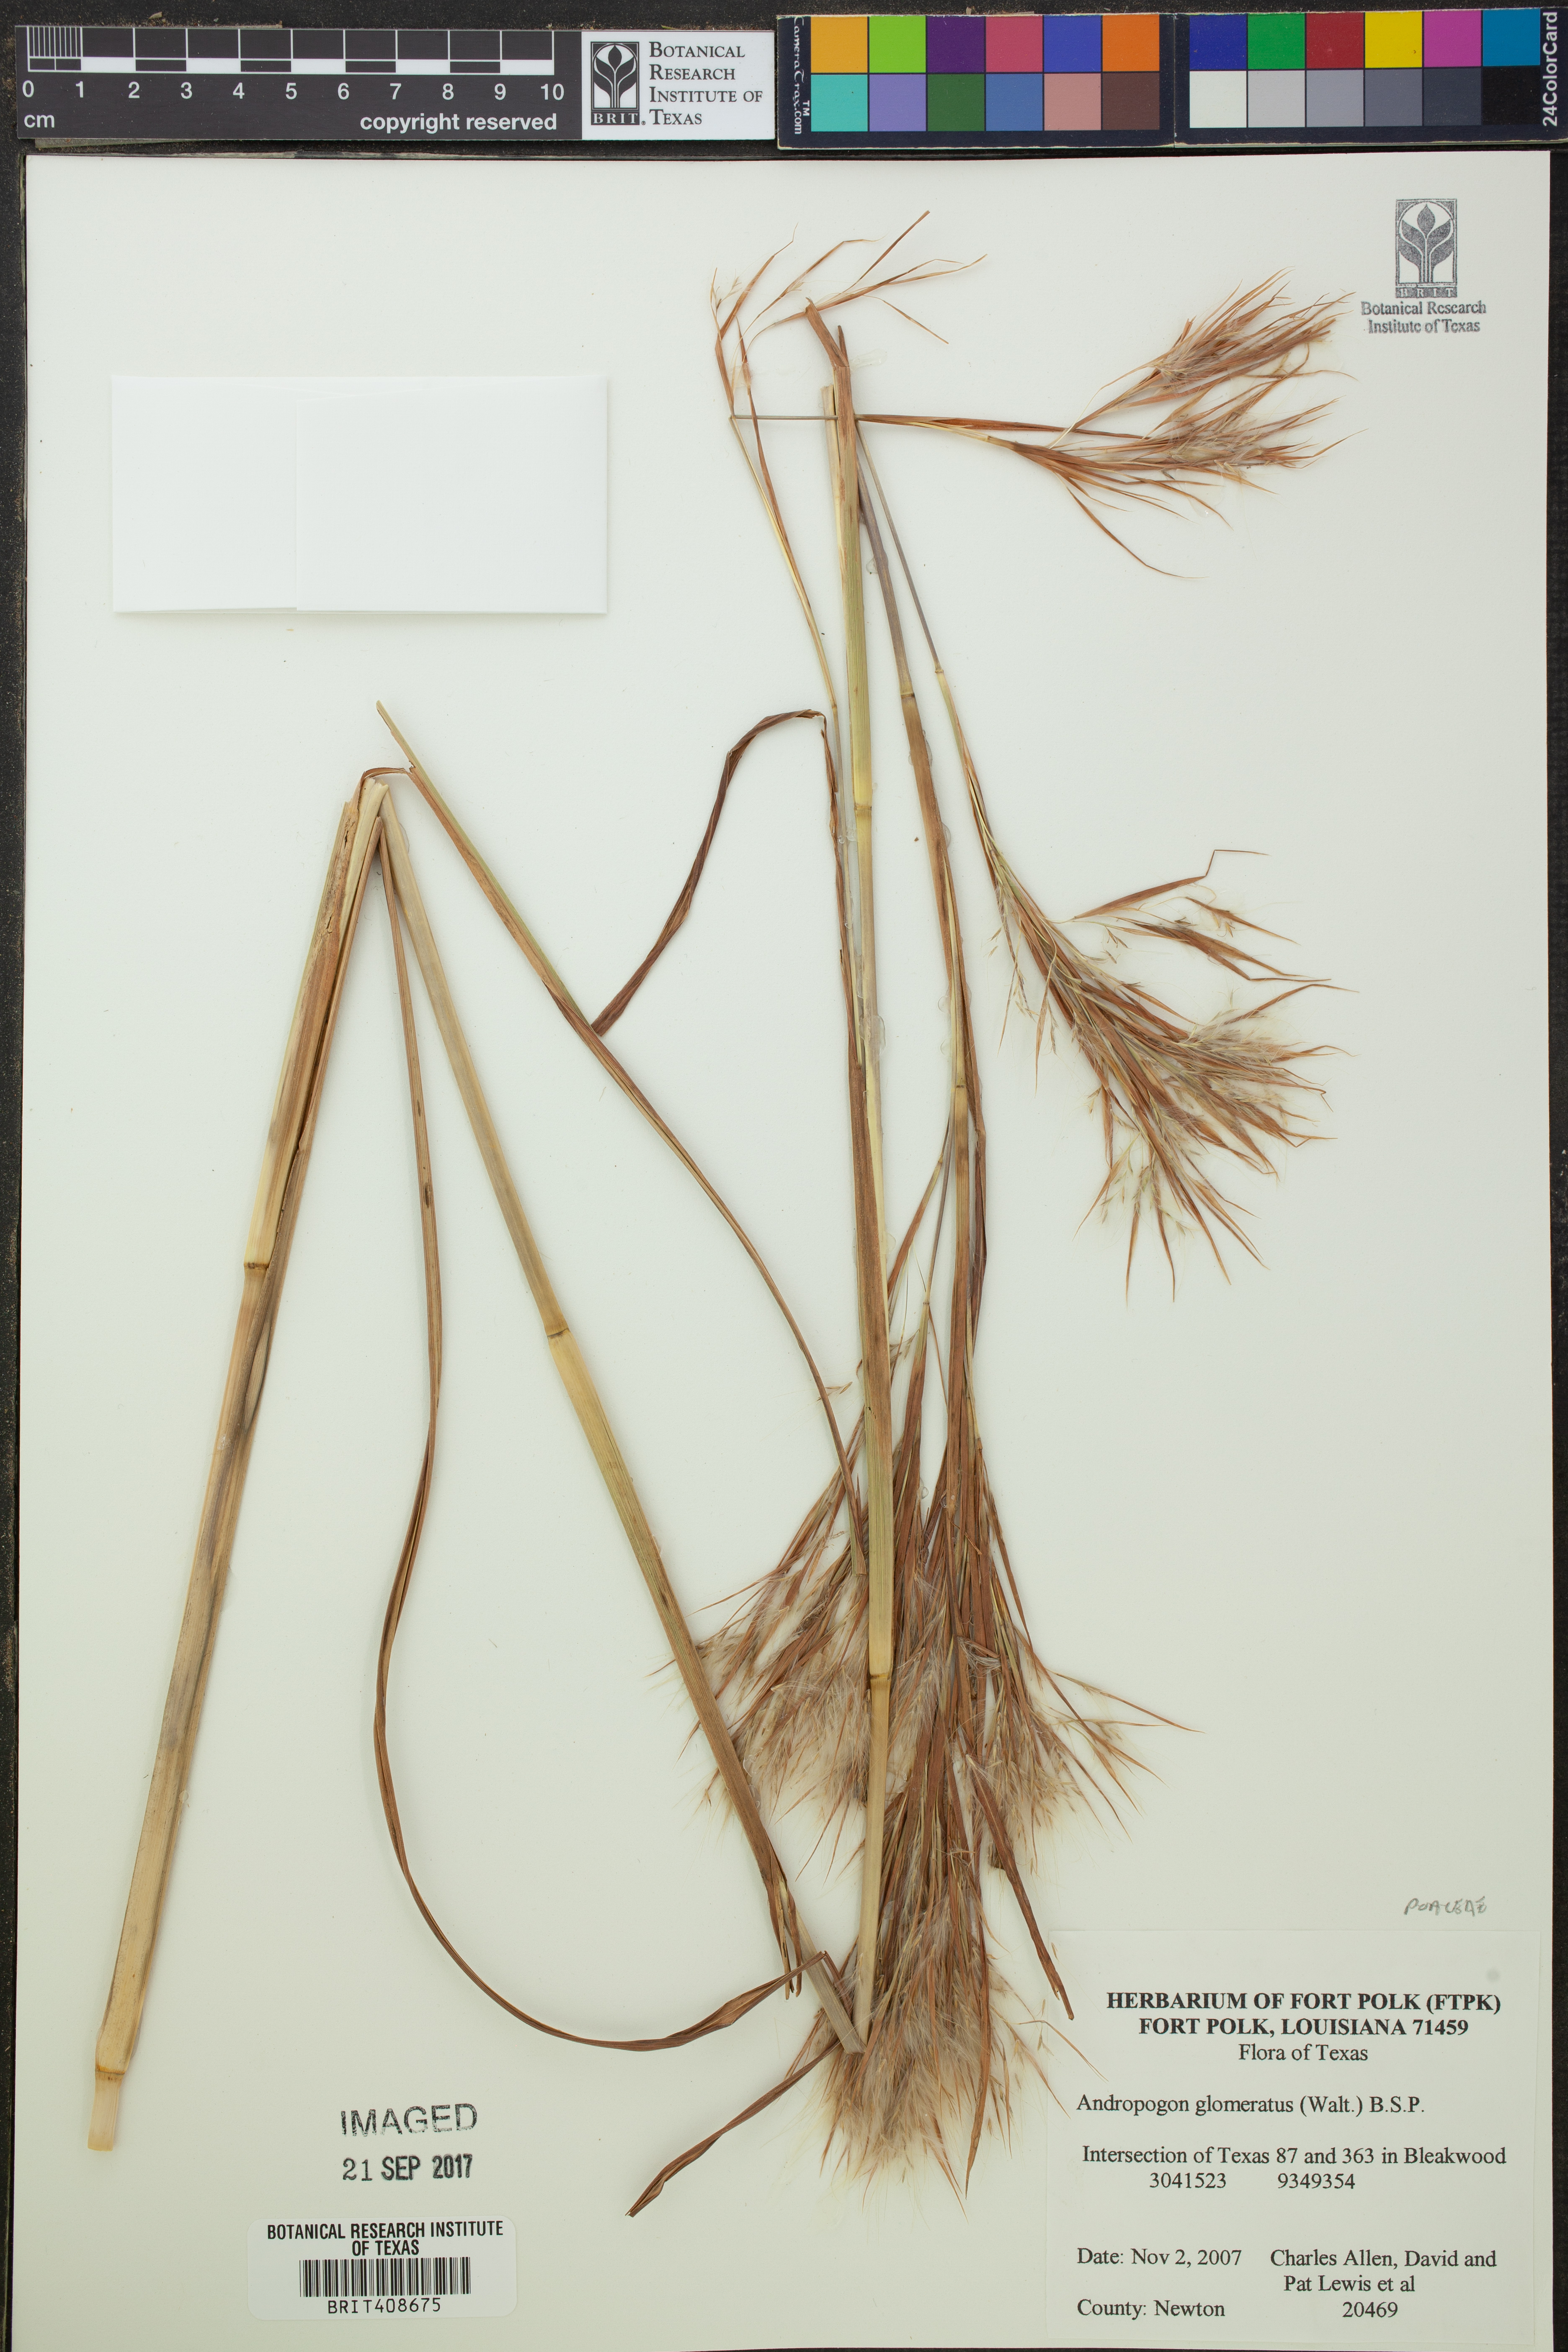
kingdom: Plantae
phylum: Tracheophyta
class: Liliopsida
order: Poales
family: Poaceae
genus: Andropogon
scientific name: Andropogon glomeratus
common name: Bushy beard grass
